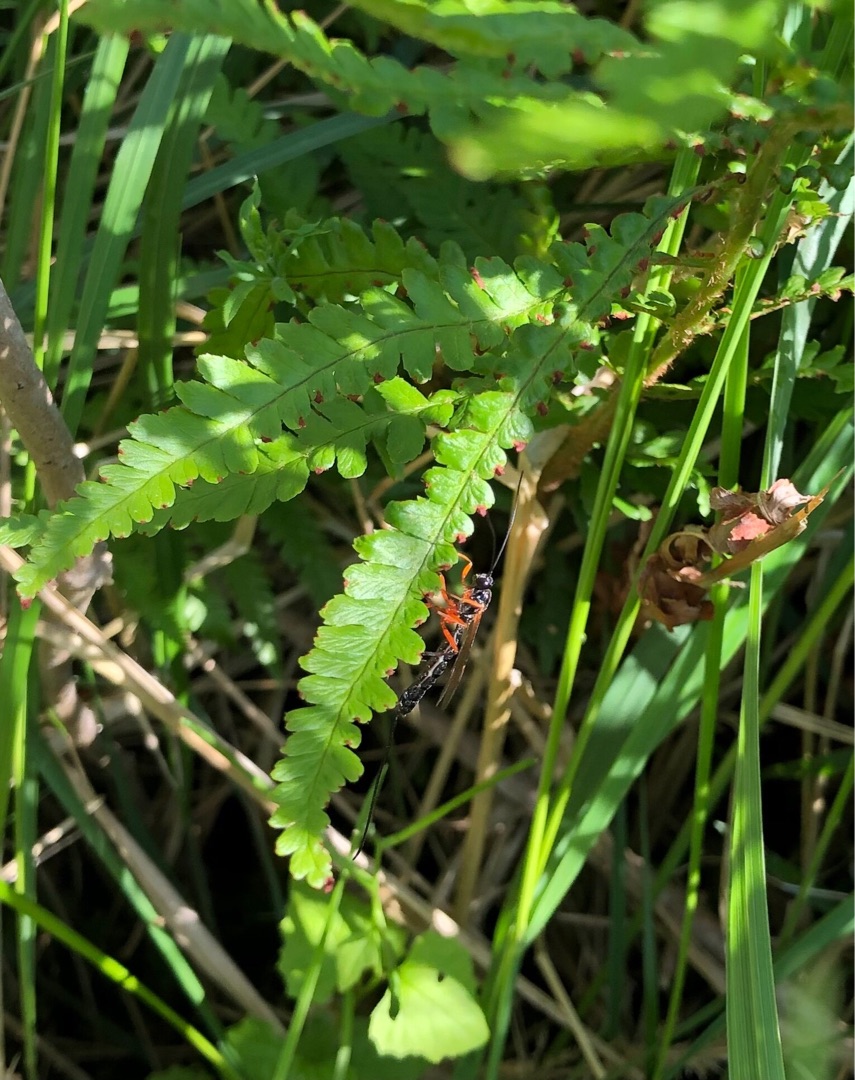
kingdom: Animalia
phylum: Arthropoda
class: Insecta
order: Hymenoptera
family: Ichneumonidae
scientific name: Ichneumonidae
